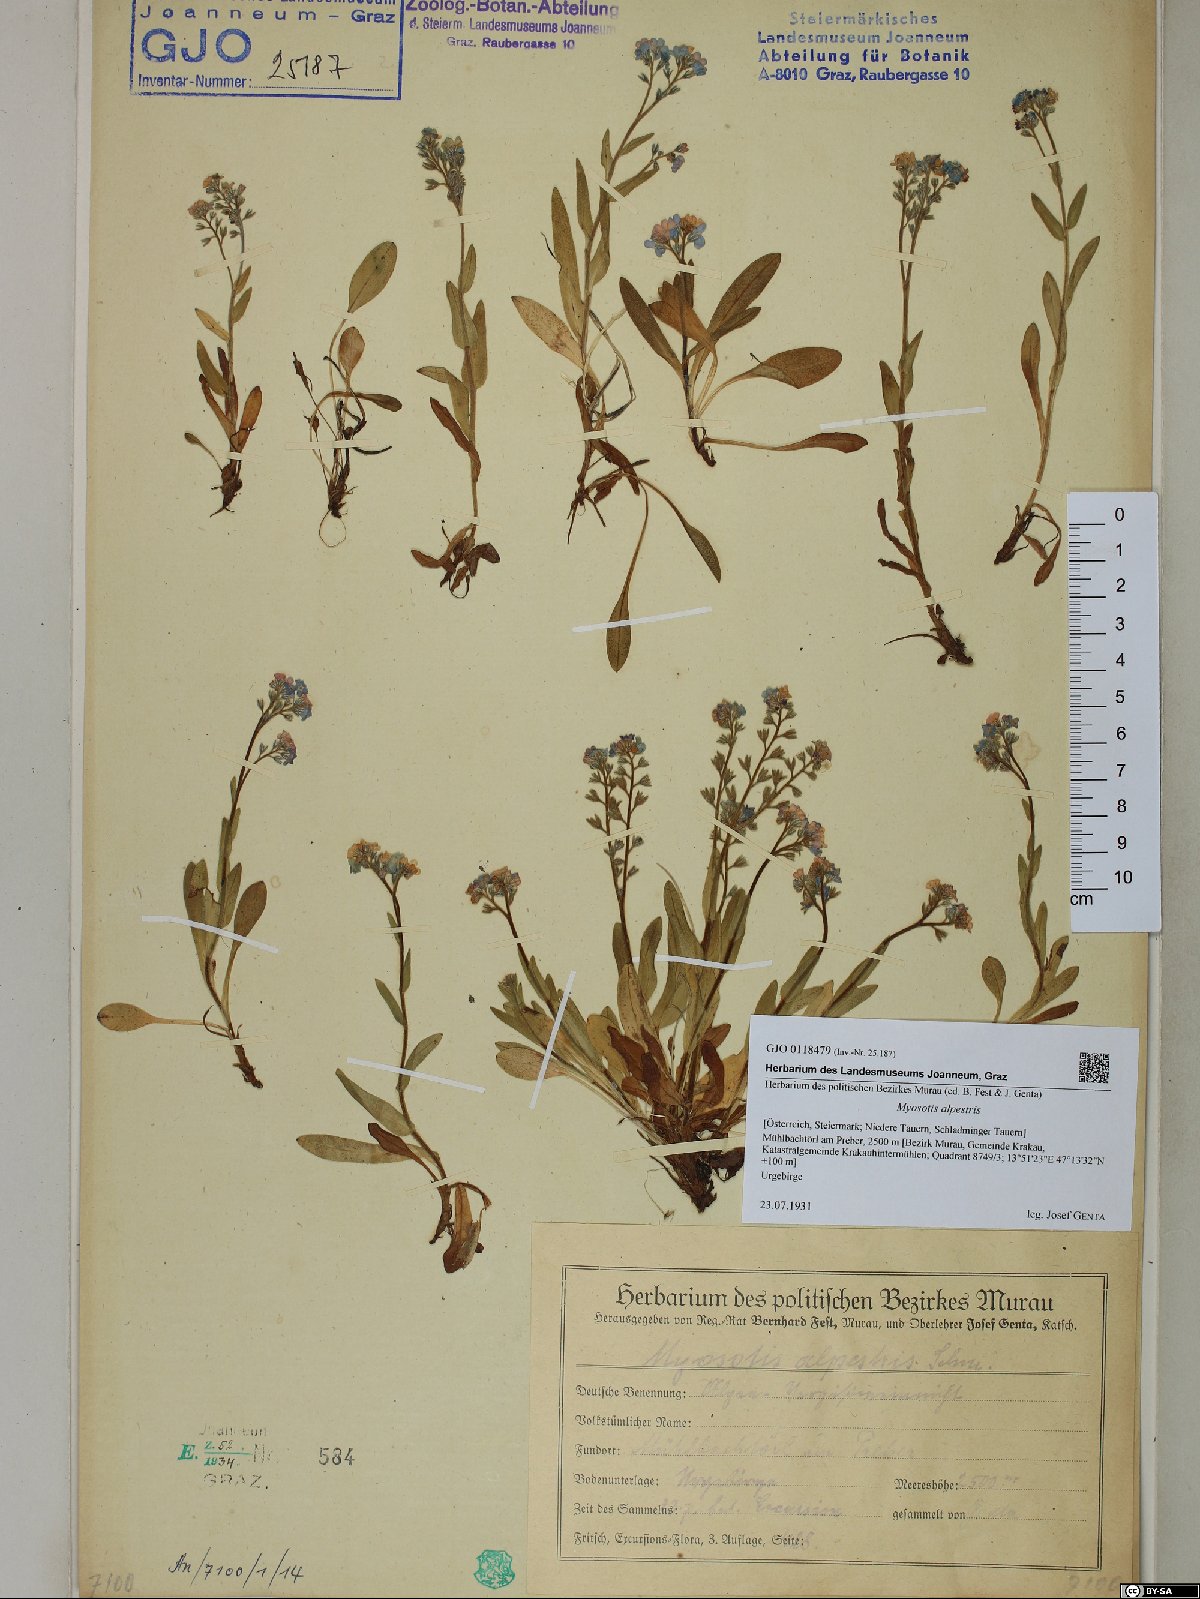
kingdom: Plantae
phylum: Tracheophyta
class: Magnoliopsida
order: Boraginales
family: Boraginaceae
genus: Myosotis
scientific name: Myosotis alpestris
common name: Alpine forget-me-not
